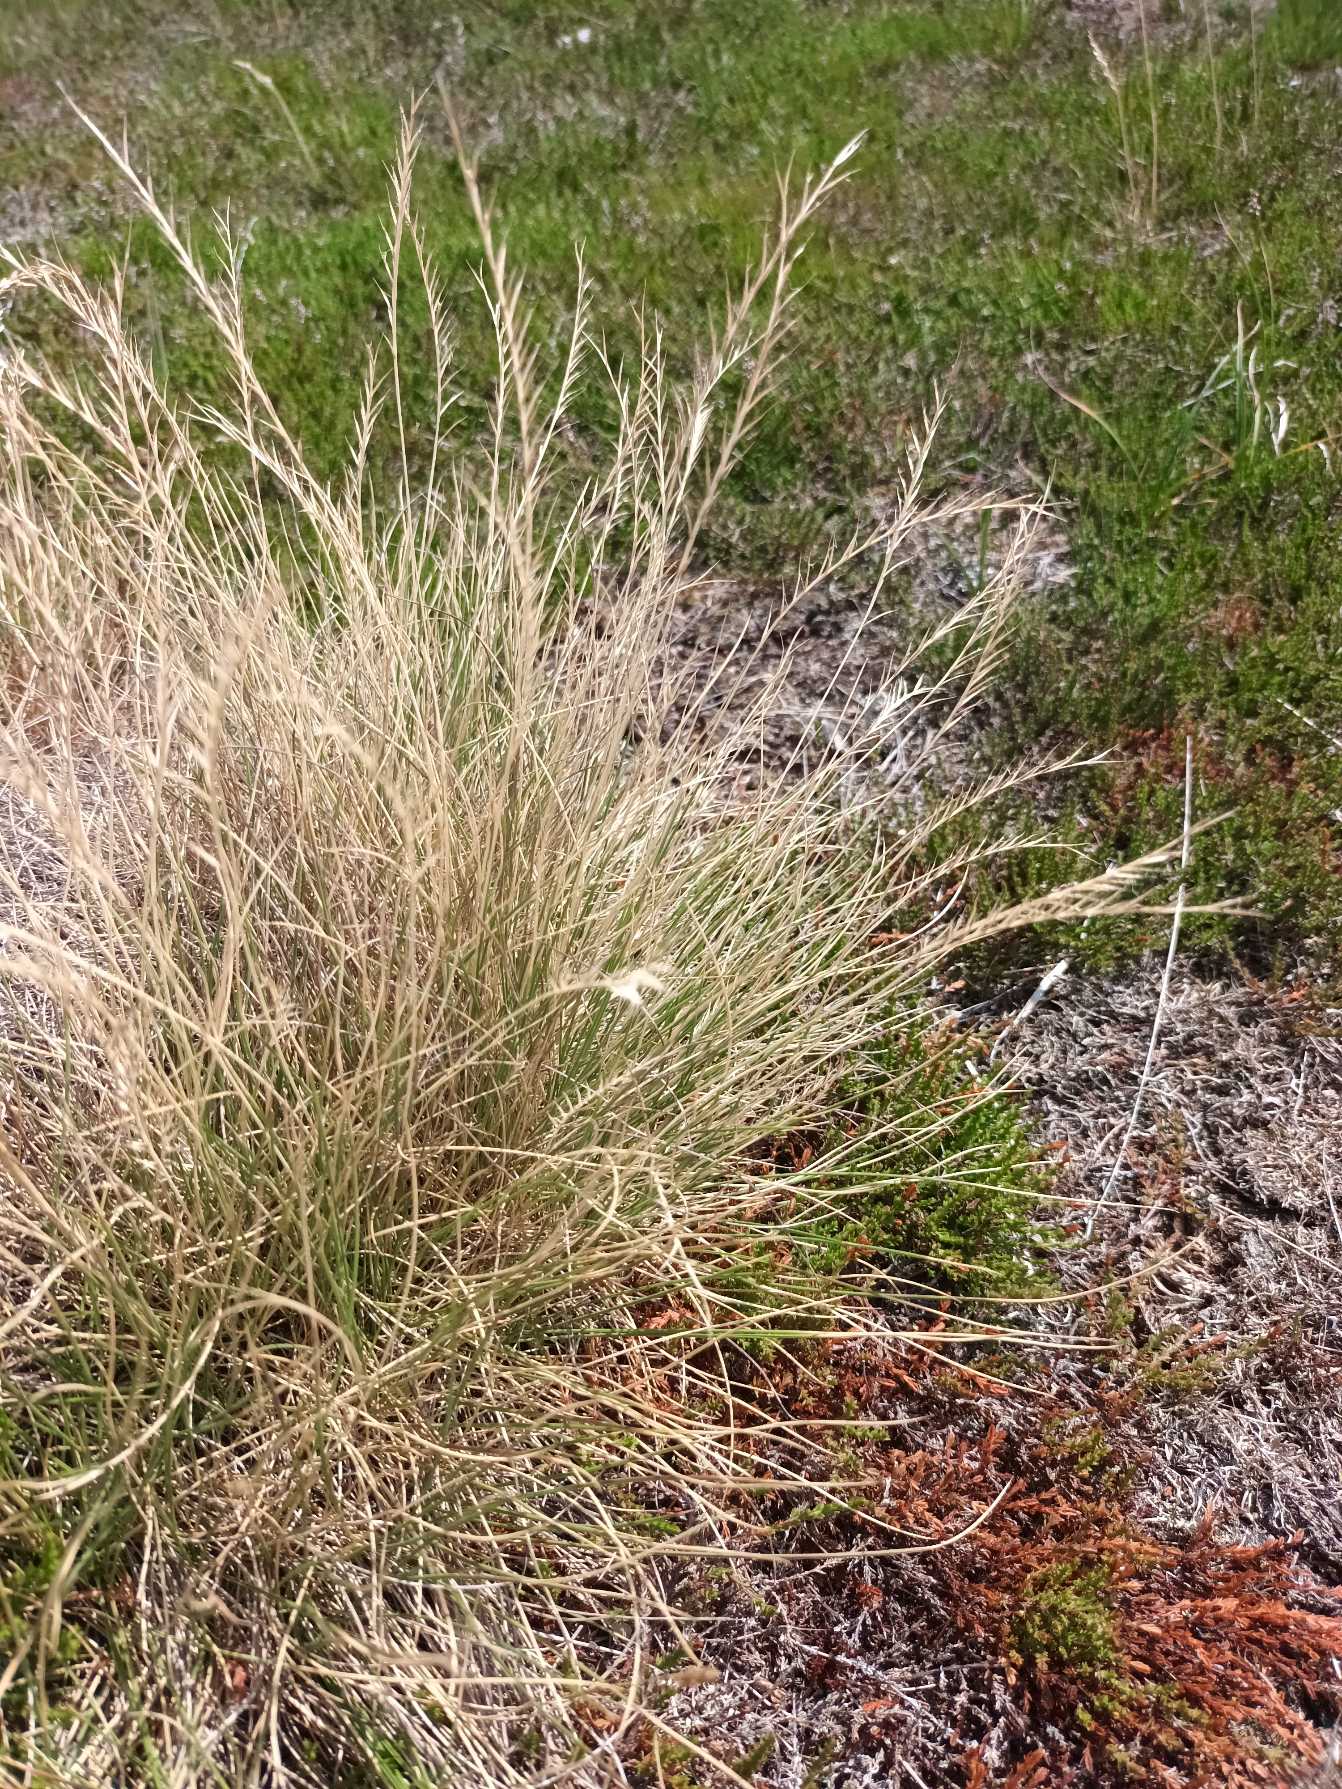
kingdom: Plantae
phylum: Tracheophyta
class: Liliopsida
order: Poales
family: Poaceae
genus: Nardus
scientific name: Nardus stricta
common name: Katteskæg
